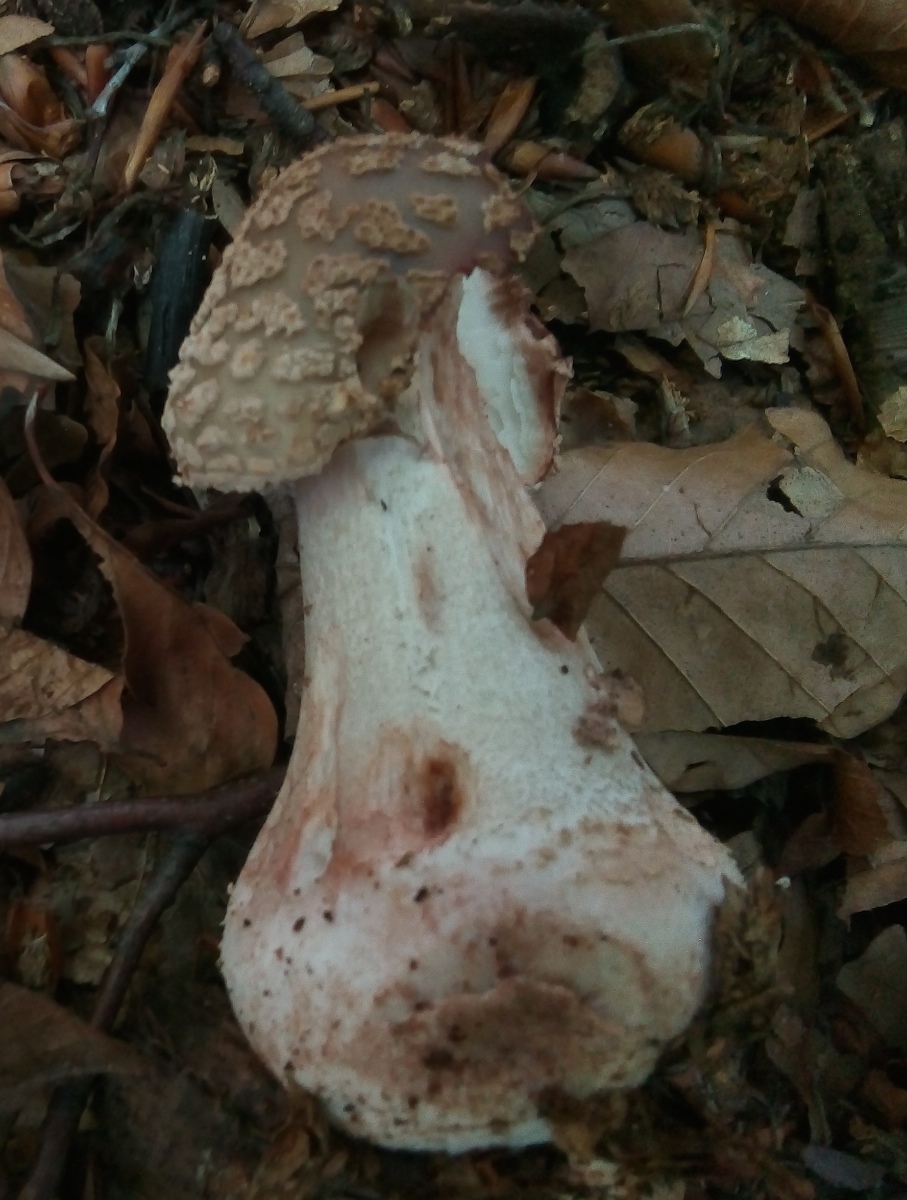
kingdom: Fungi
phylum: Basidiomycota
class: Agaricomycetes
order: Agaricales
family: Amanitaceae
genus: Amanita
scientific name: Amanita rubescens
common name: rødmende fluesvamp
